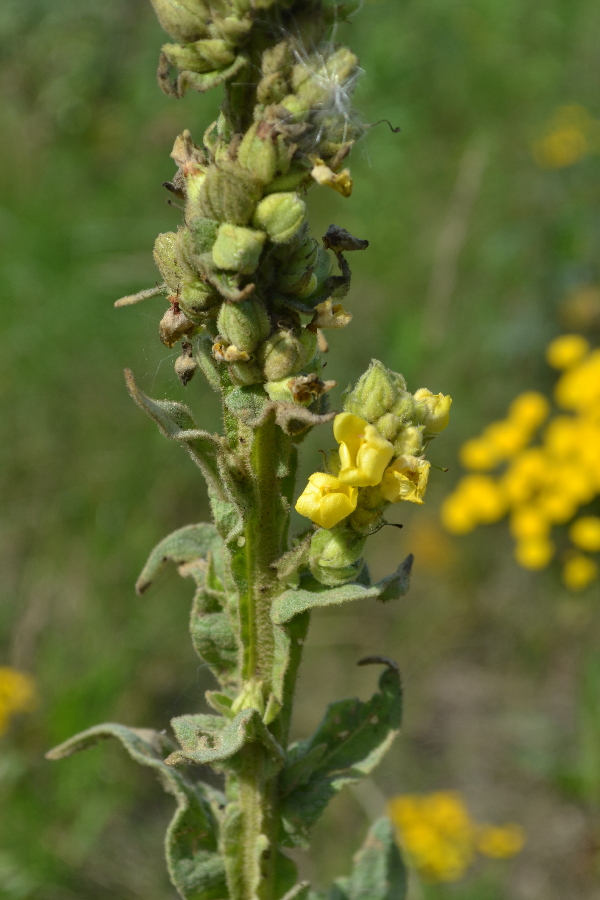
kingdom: Plantae
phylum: Tracheophyta
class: Magnoliopsida
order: Lamiales
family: Scrophulariaceae
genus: Verbascum
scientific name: Verbascum thapsus
